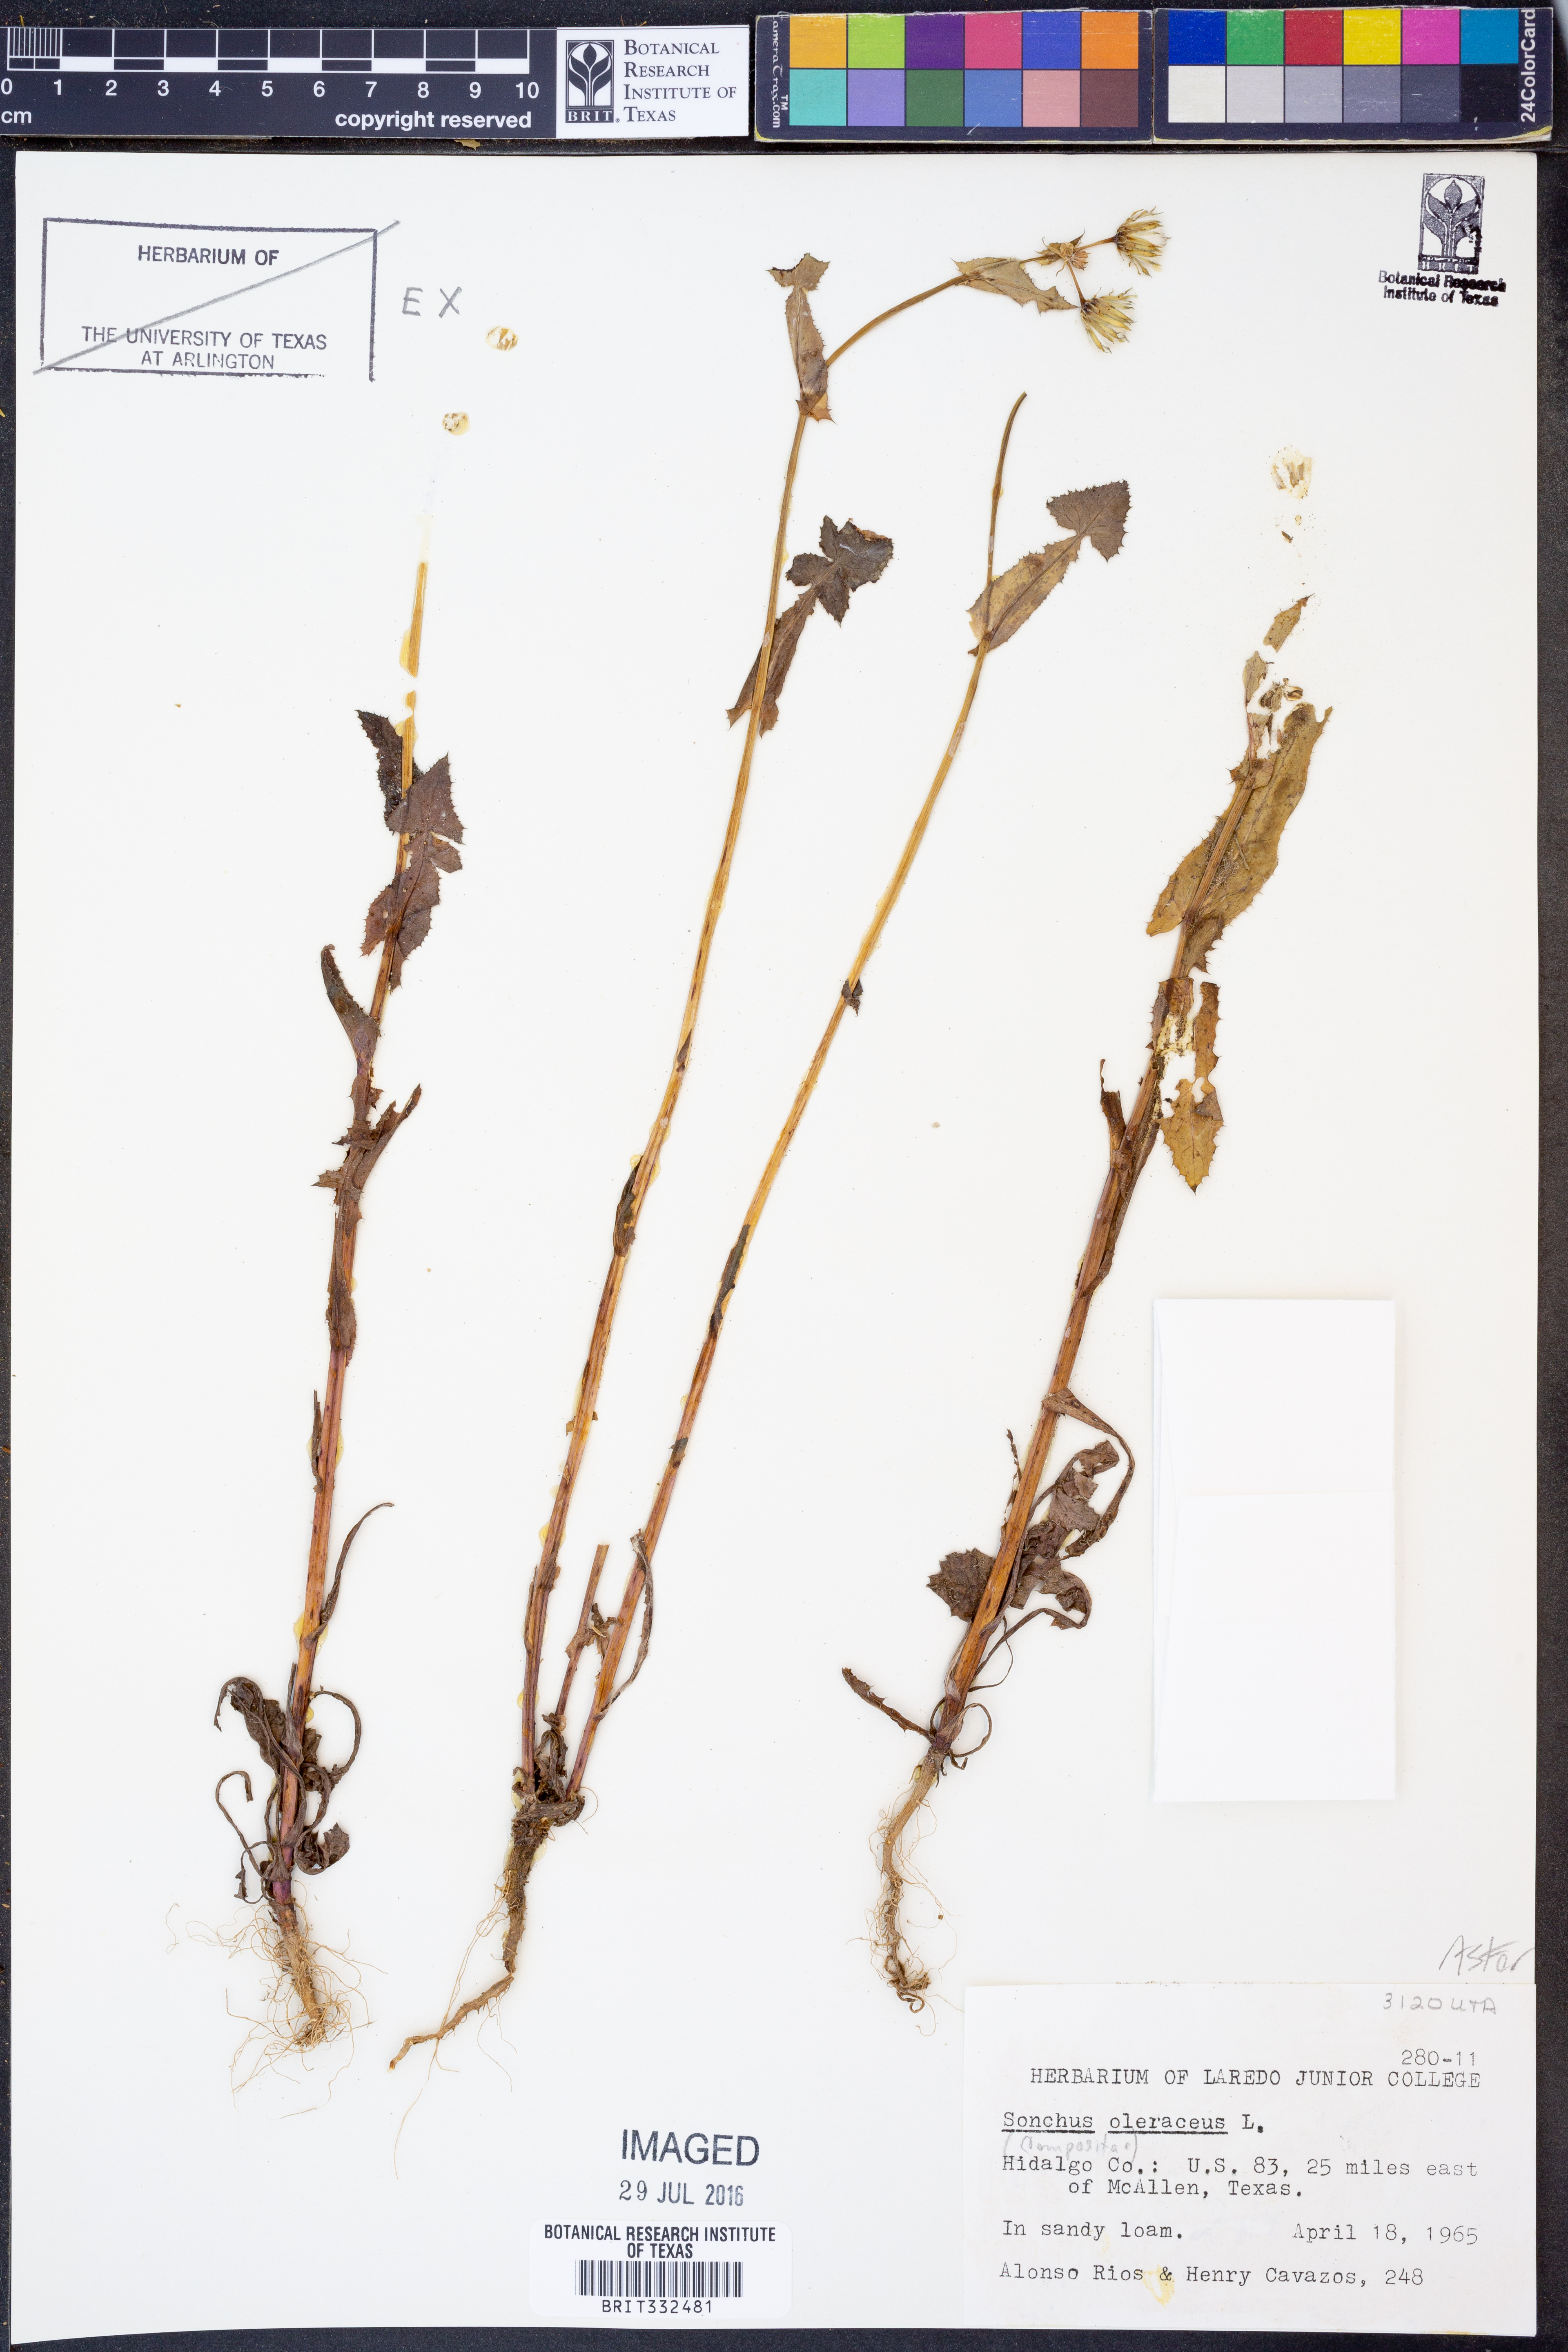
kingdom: Plantae
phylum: Tracheophyta
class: Magnoliopsida
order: Asterales
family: Asteraceae
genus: Sonchus
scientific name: Sonchus oleraceus
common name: Common sowthistle
